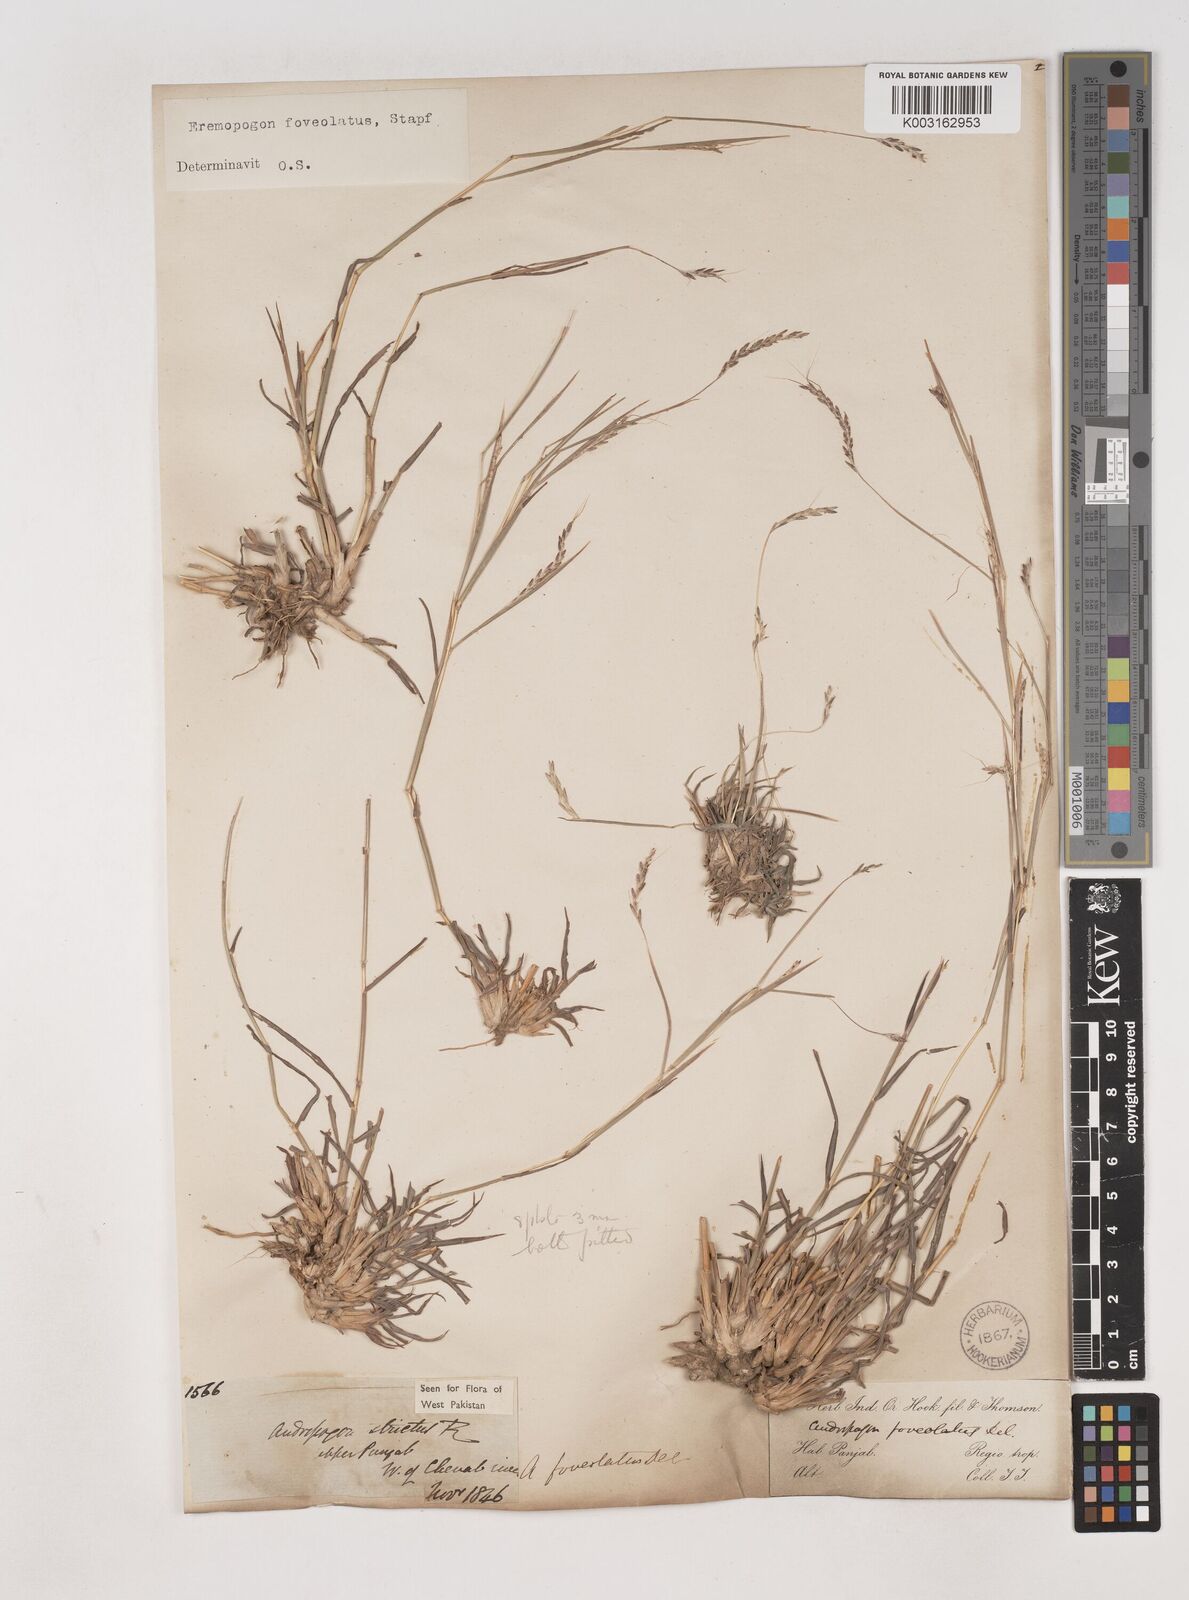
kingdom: Plantae
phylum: Tracheophyta
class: Liliopsida
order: Poales
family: Poaceae
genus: Dichanthium
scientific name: Dichanthium
